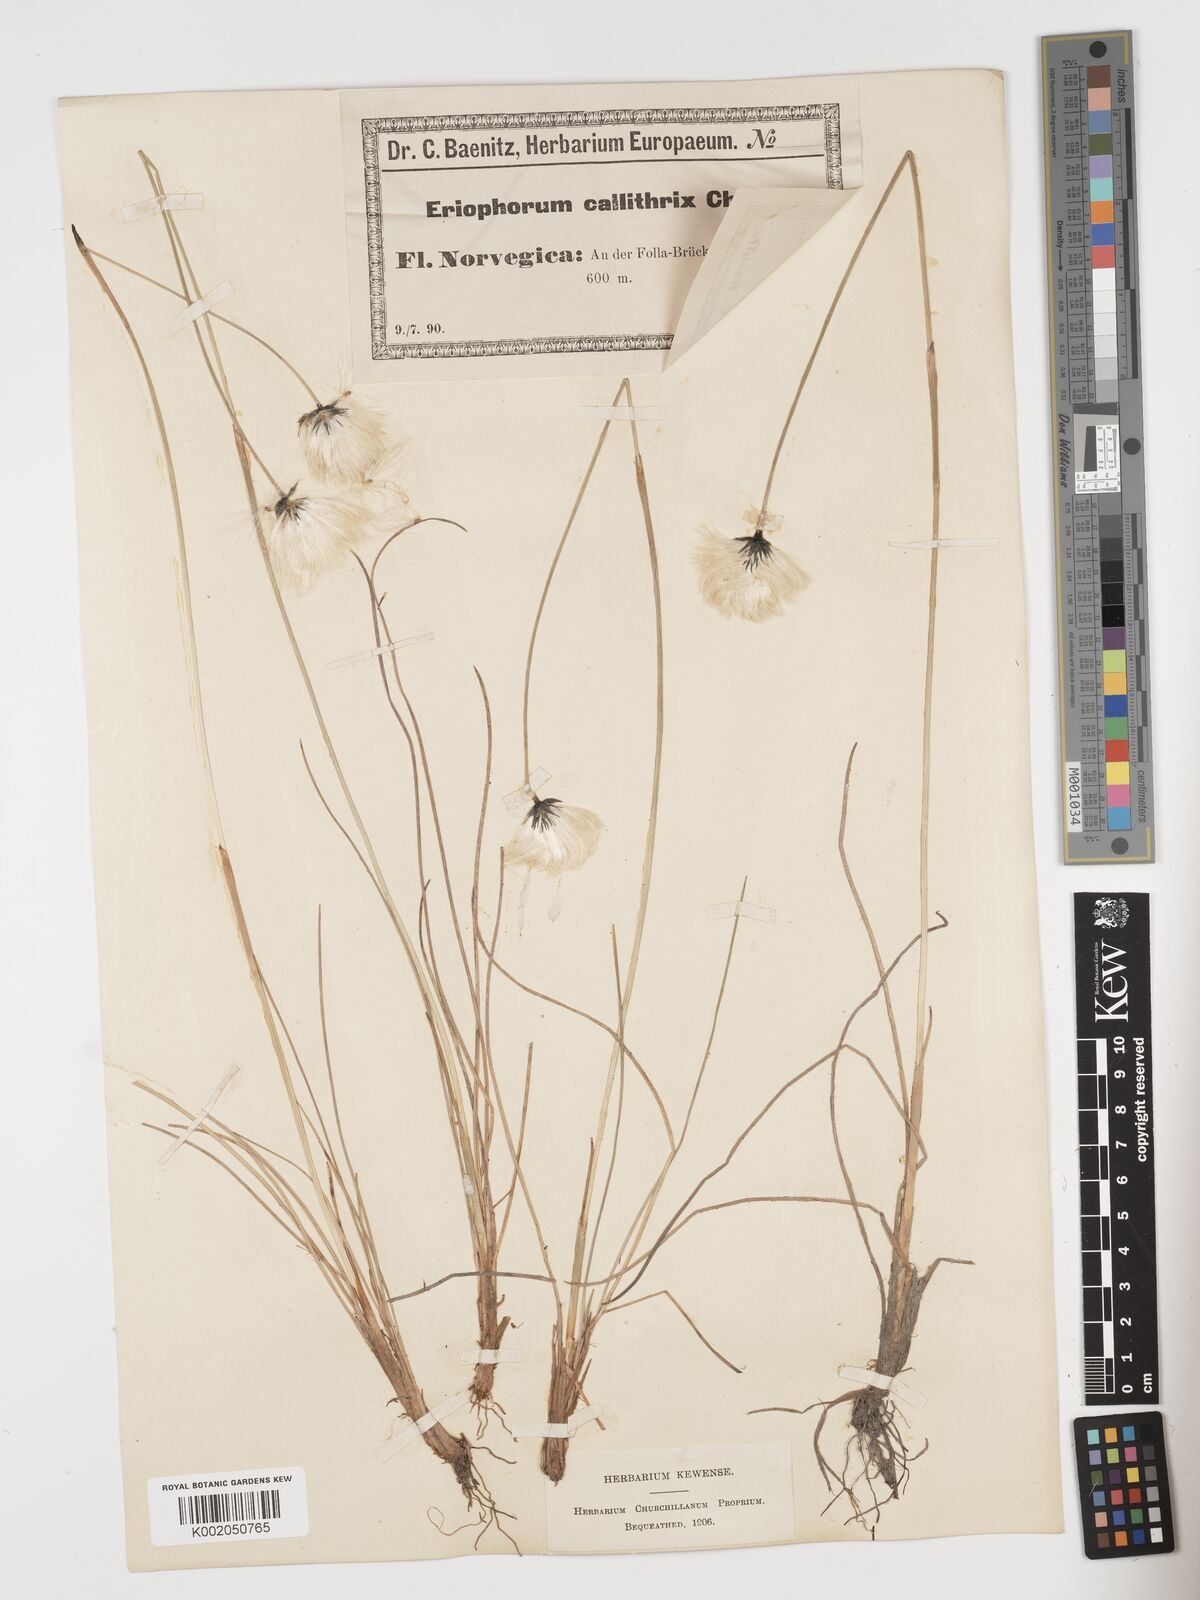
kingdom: Plantae
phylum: Tracheophyta
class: Liliopsida
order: Poales
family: Cyperaceae
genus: Eriophorum
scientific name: Eriophorum brachyantherum
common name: Closed-sheathed cottongrass
